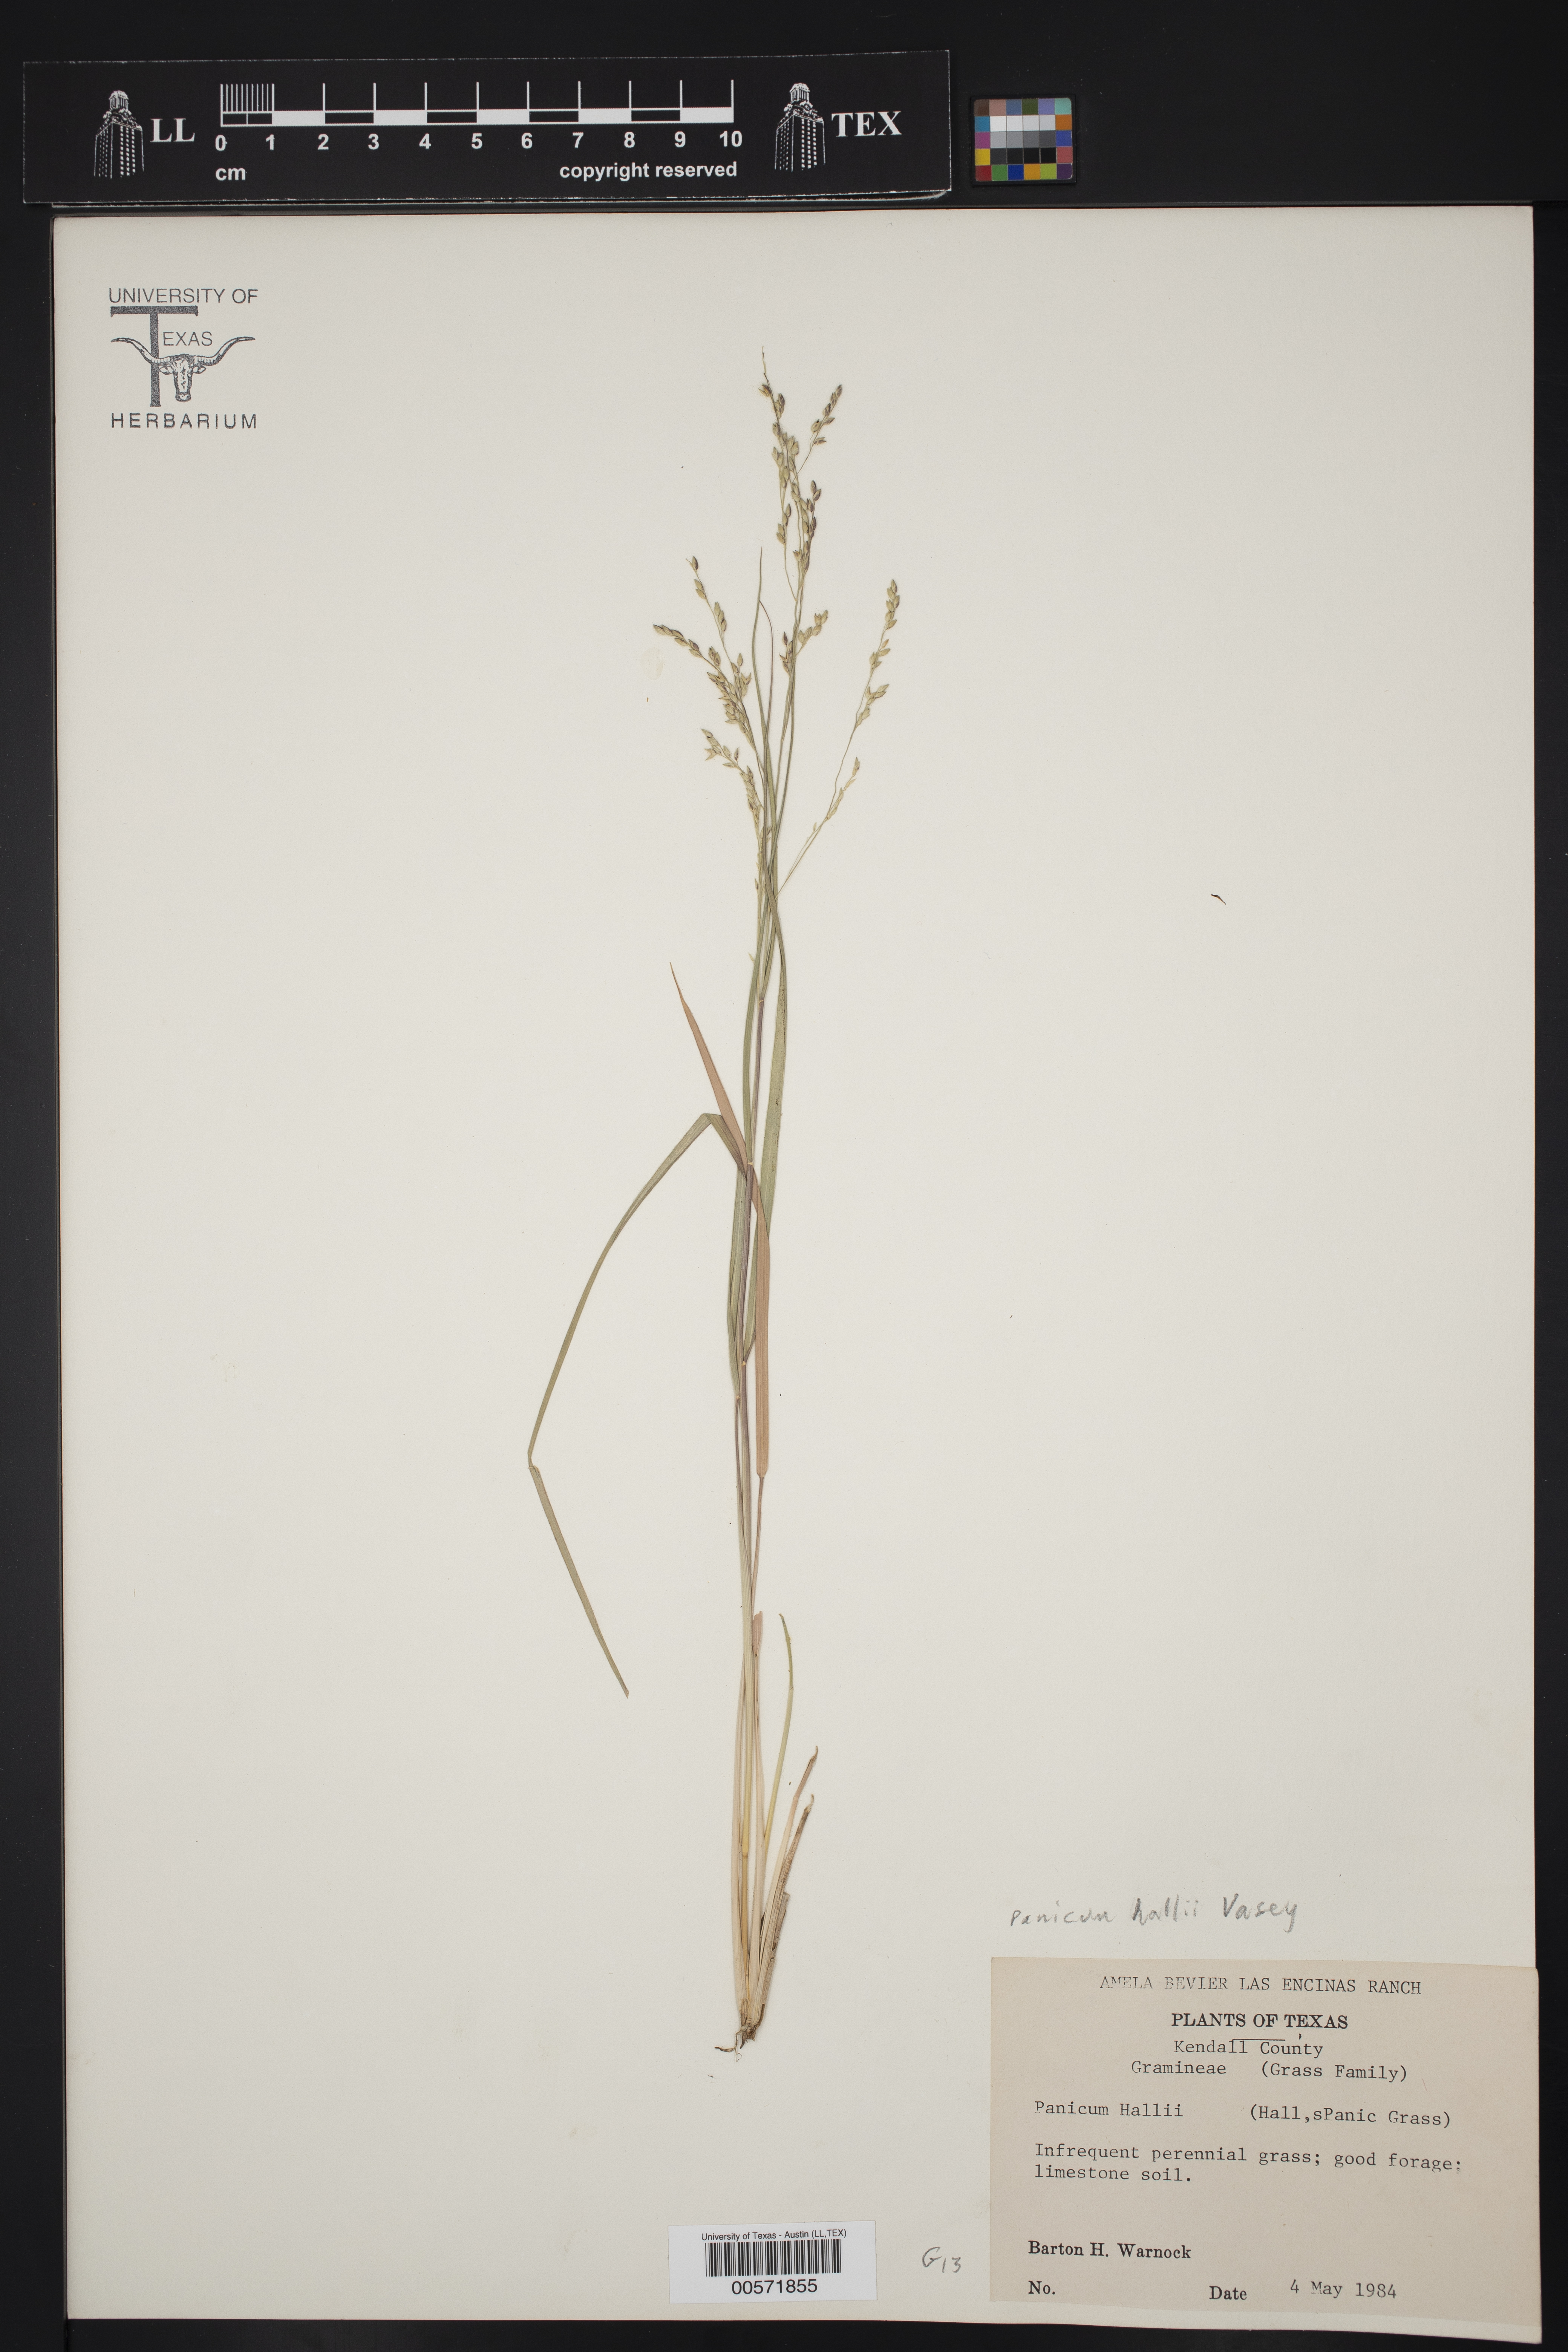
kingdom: Plantae
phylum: Tracheophyta
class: Liliopsida
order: Poales
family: Poaceae
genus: Panicum
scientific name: Panicum hallii
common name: Hall's witchgrass
